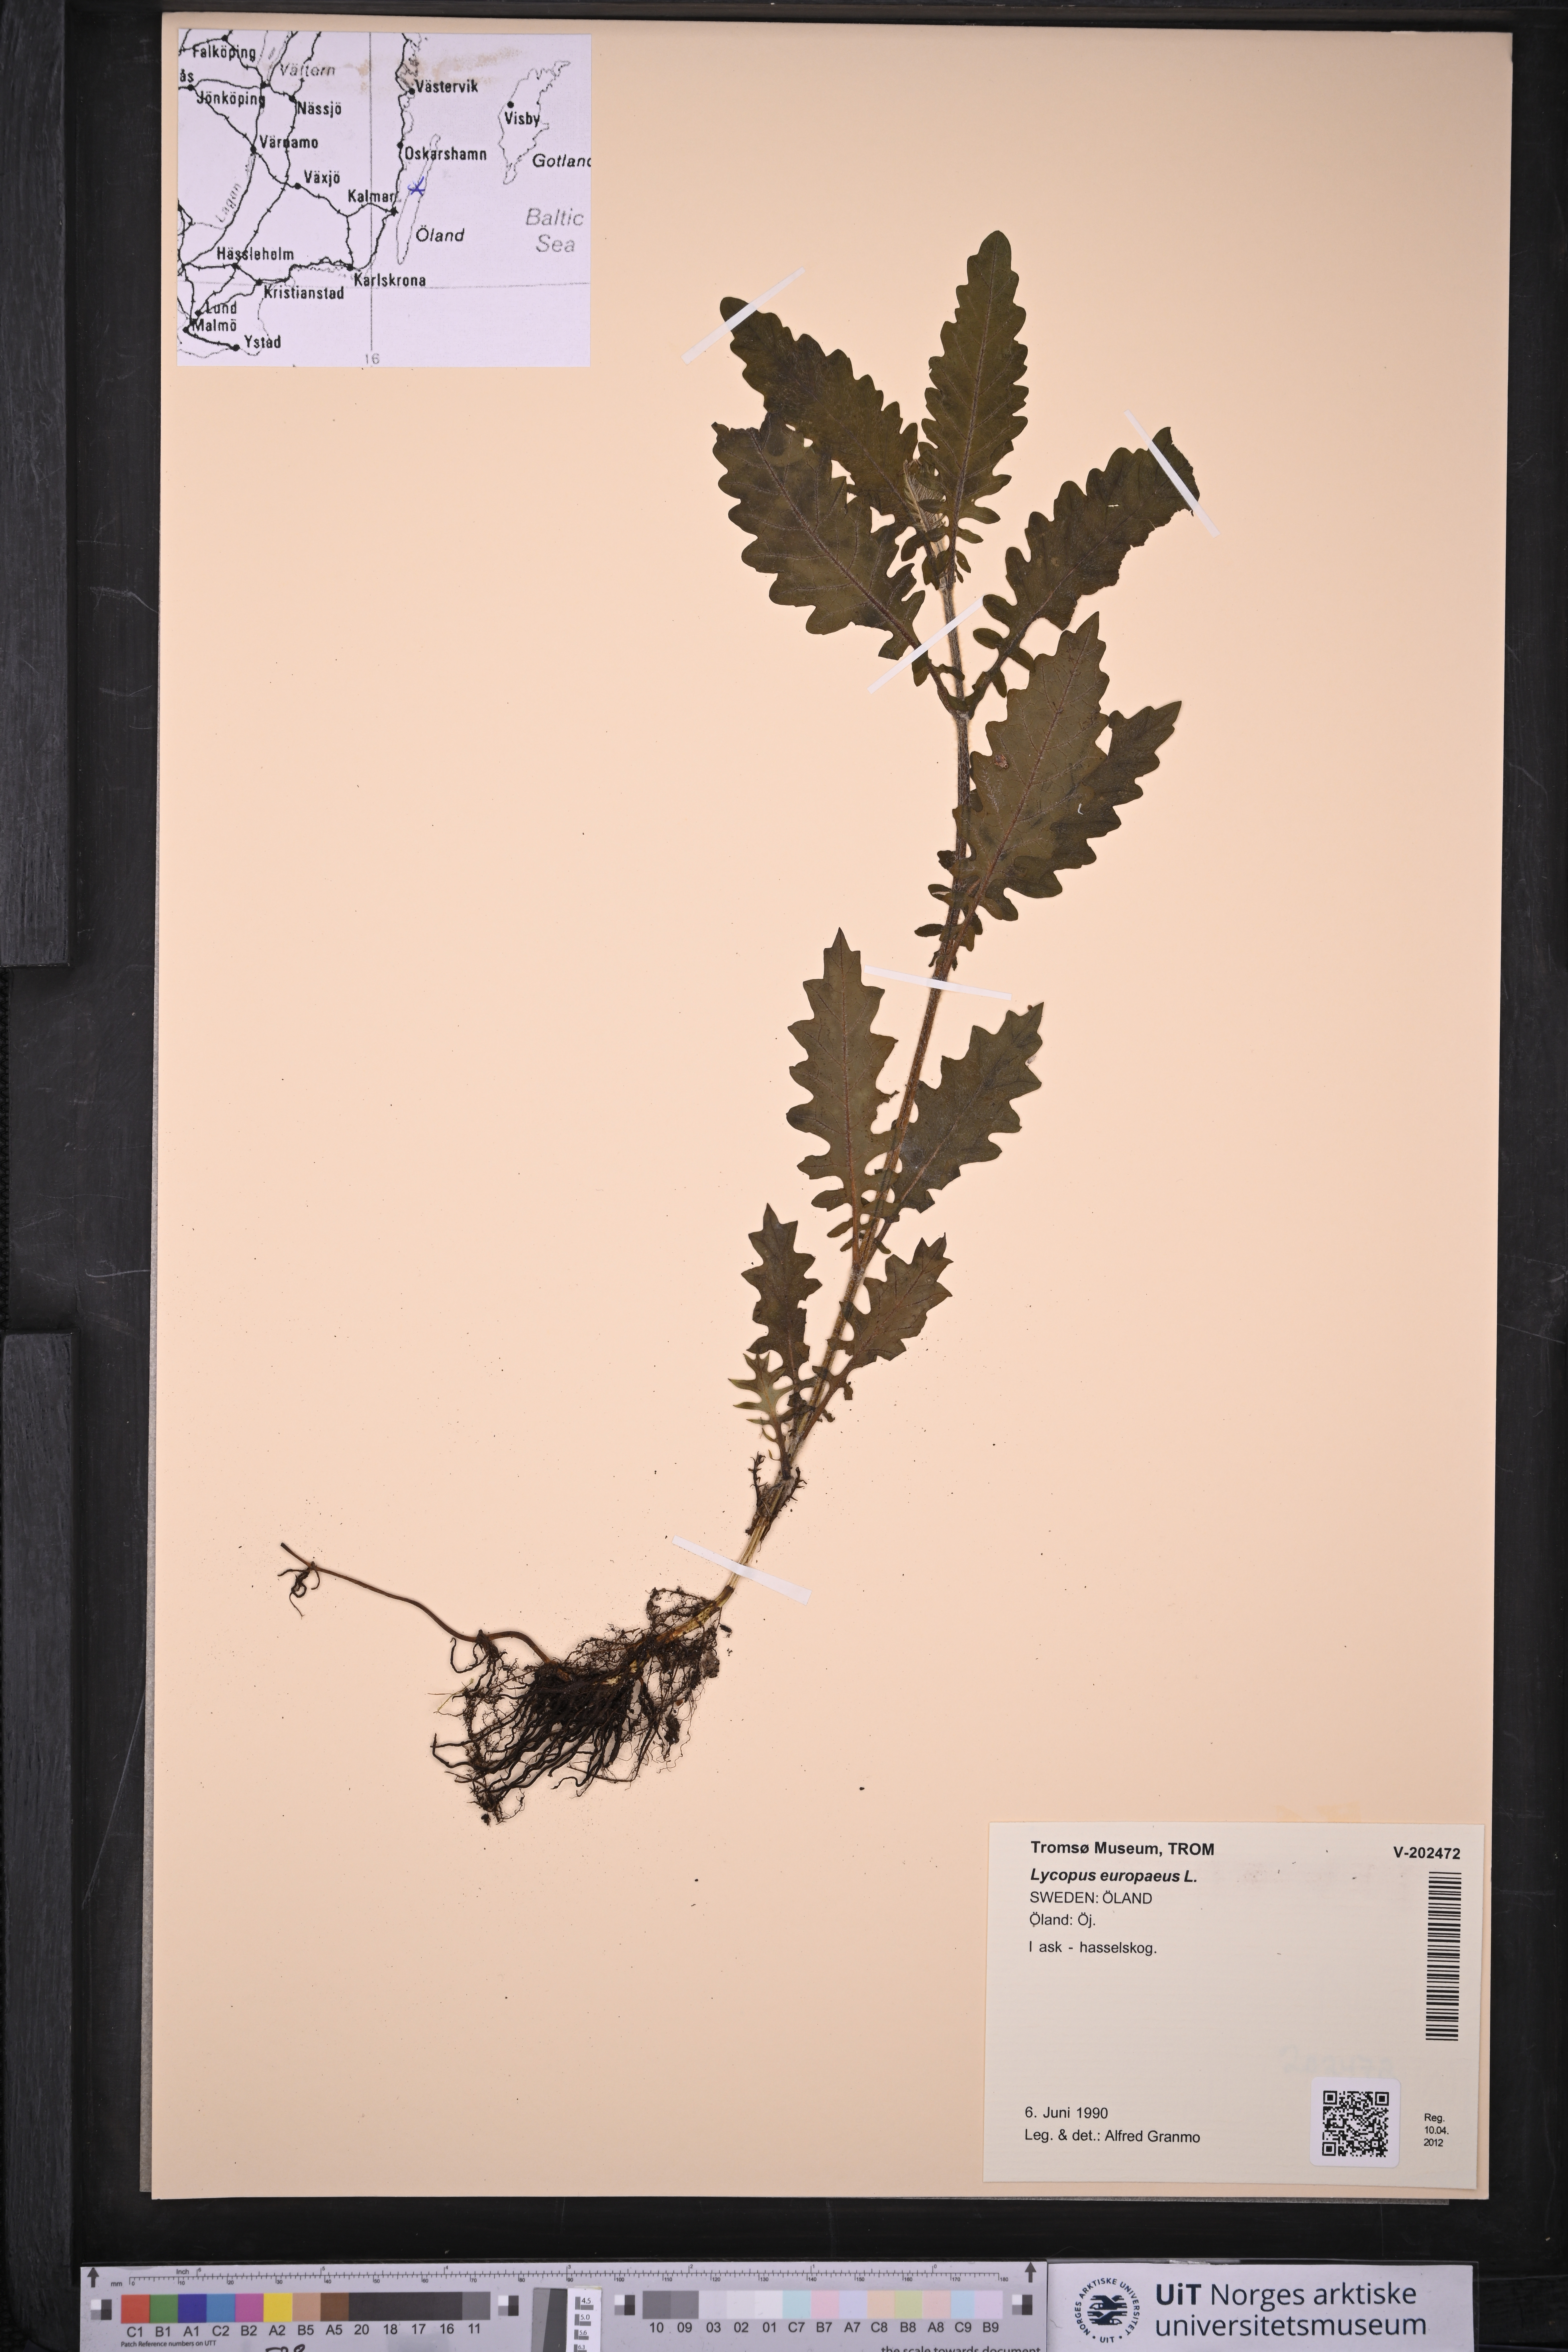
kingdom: Plantae
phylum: Tracheophyta
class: Magnoliopsida
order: Lamiales
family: Lamiaceae
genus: Lycopus
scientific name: Lycopus europaeus
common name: European bugleweed
